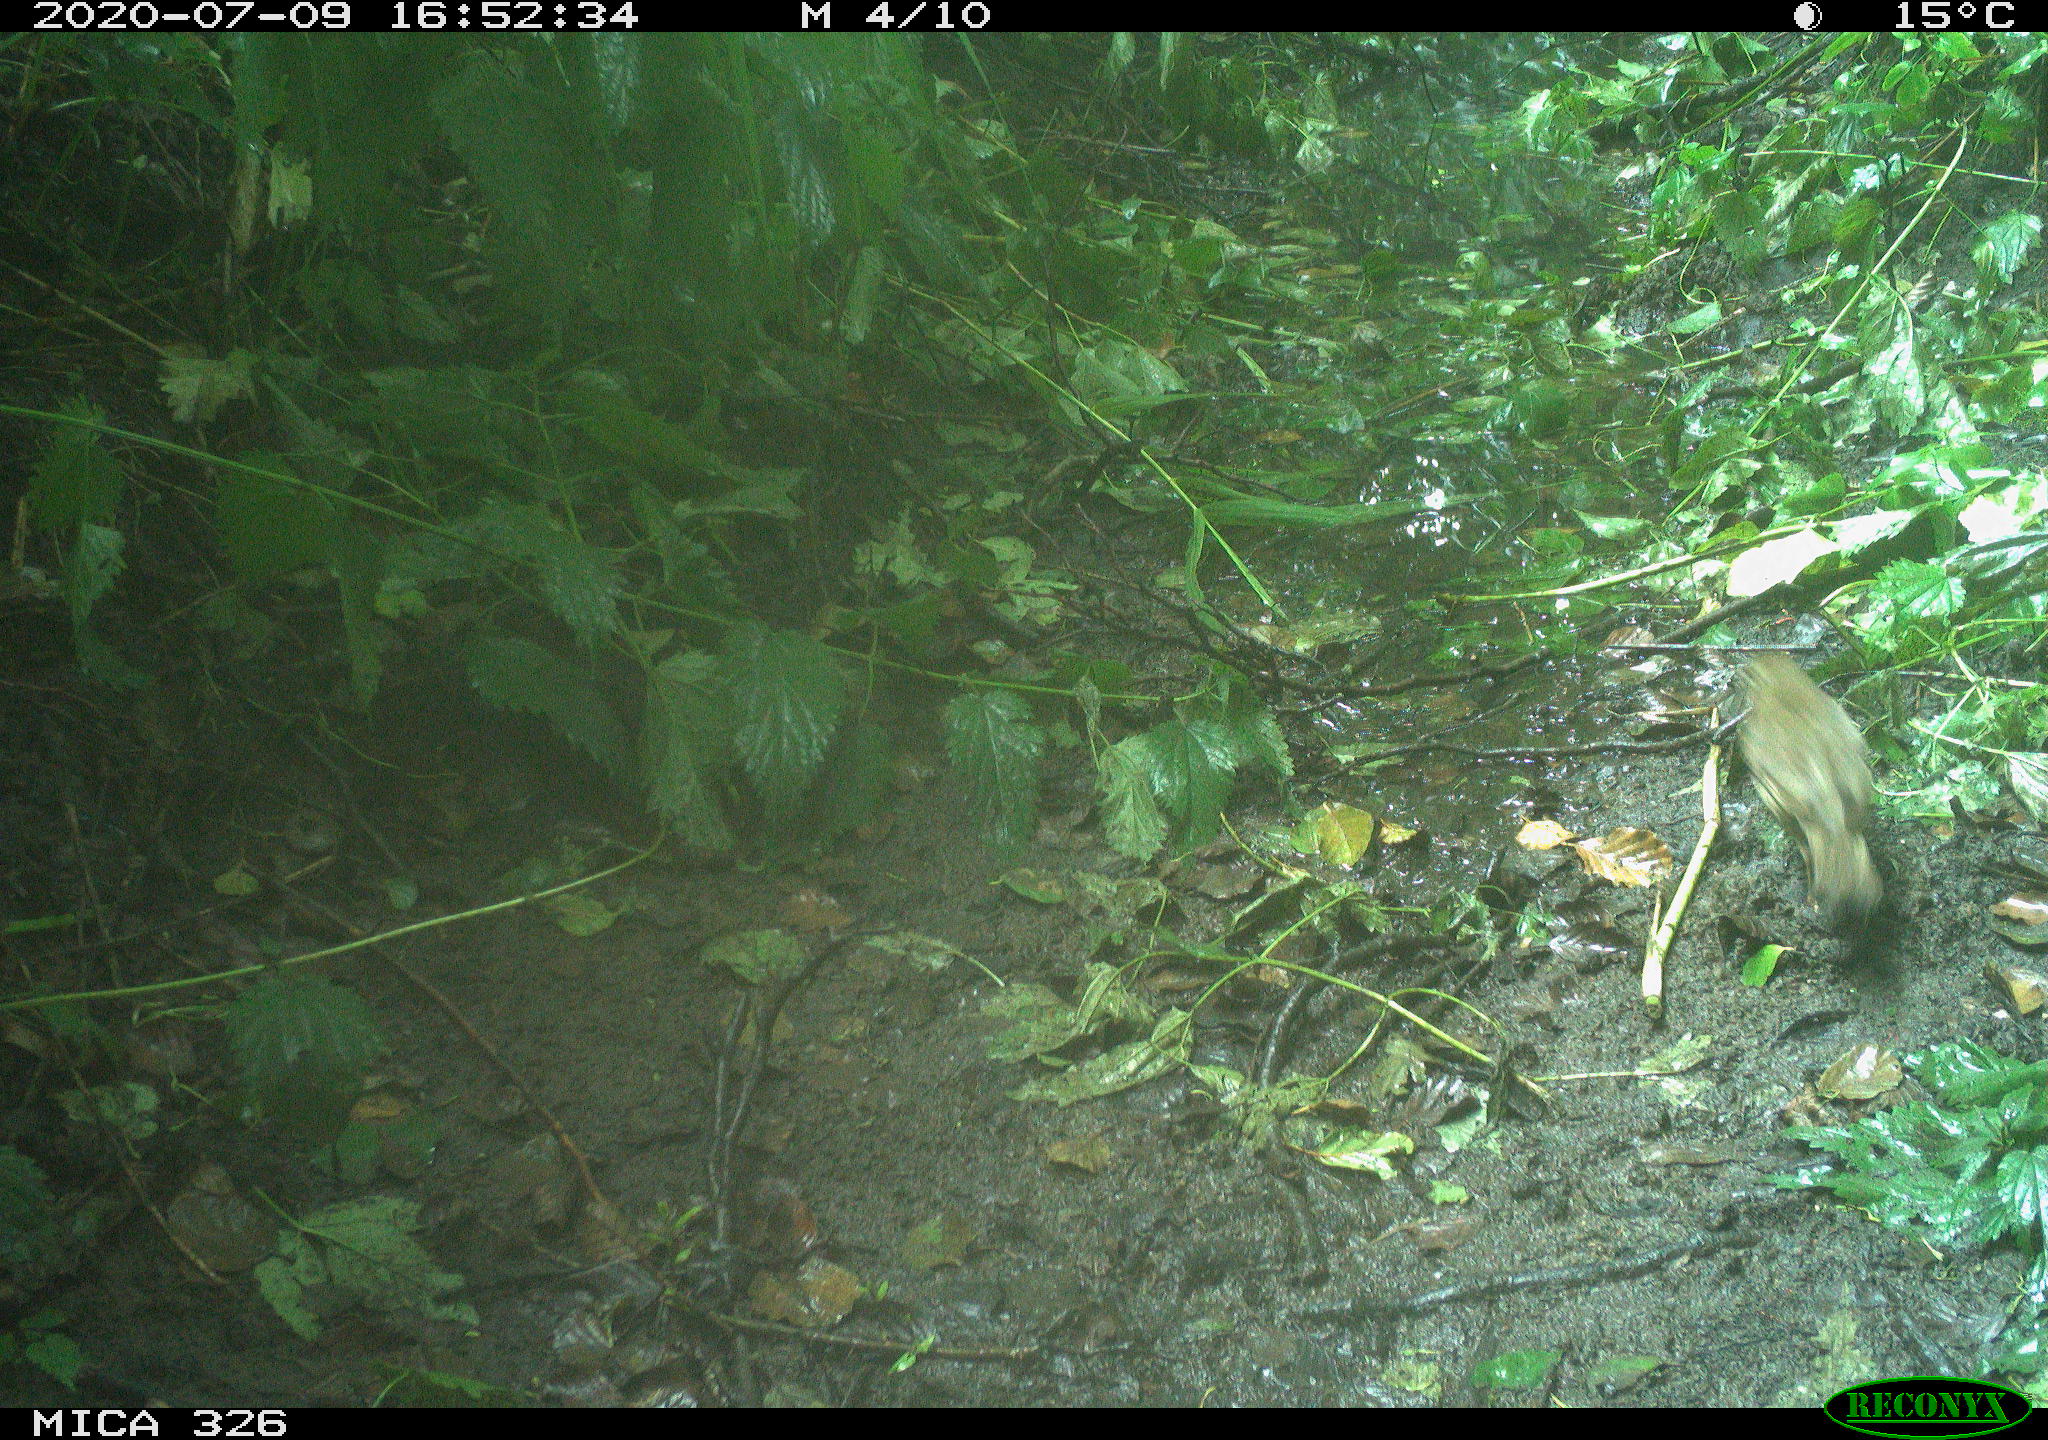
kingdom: Animalia
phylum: Chordata
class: Aves
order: Passeriformes
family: Turdidae
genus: Turdus
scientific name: Turdus philomelos
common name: Song thrush
